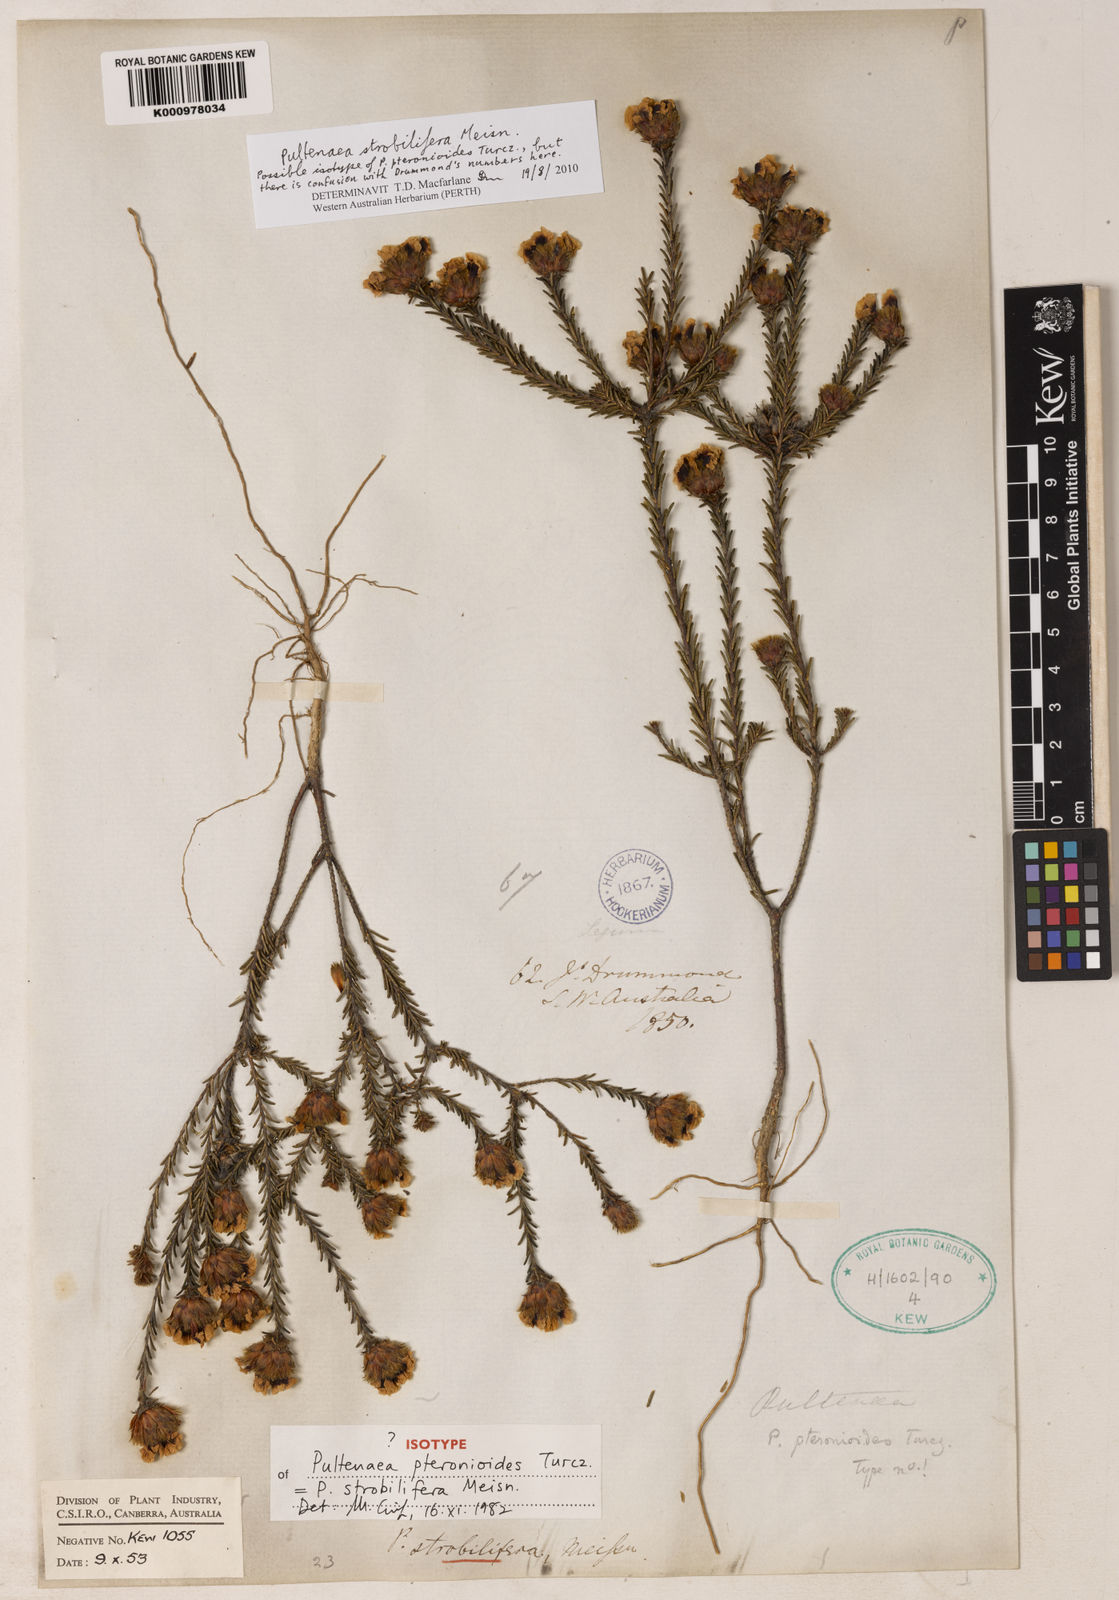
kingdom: Plantae
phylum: Tracheophyta
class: Magnoliopsida
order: Fabales
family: Fabaceae
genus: Pultenaea
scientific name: Pultenaea
